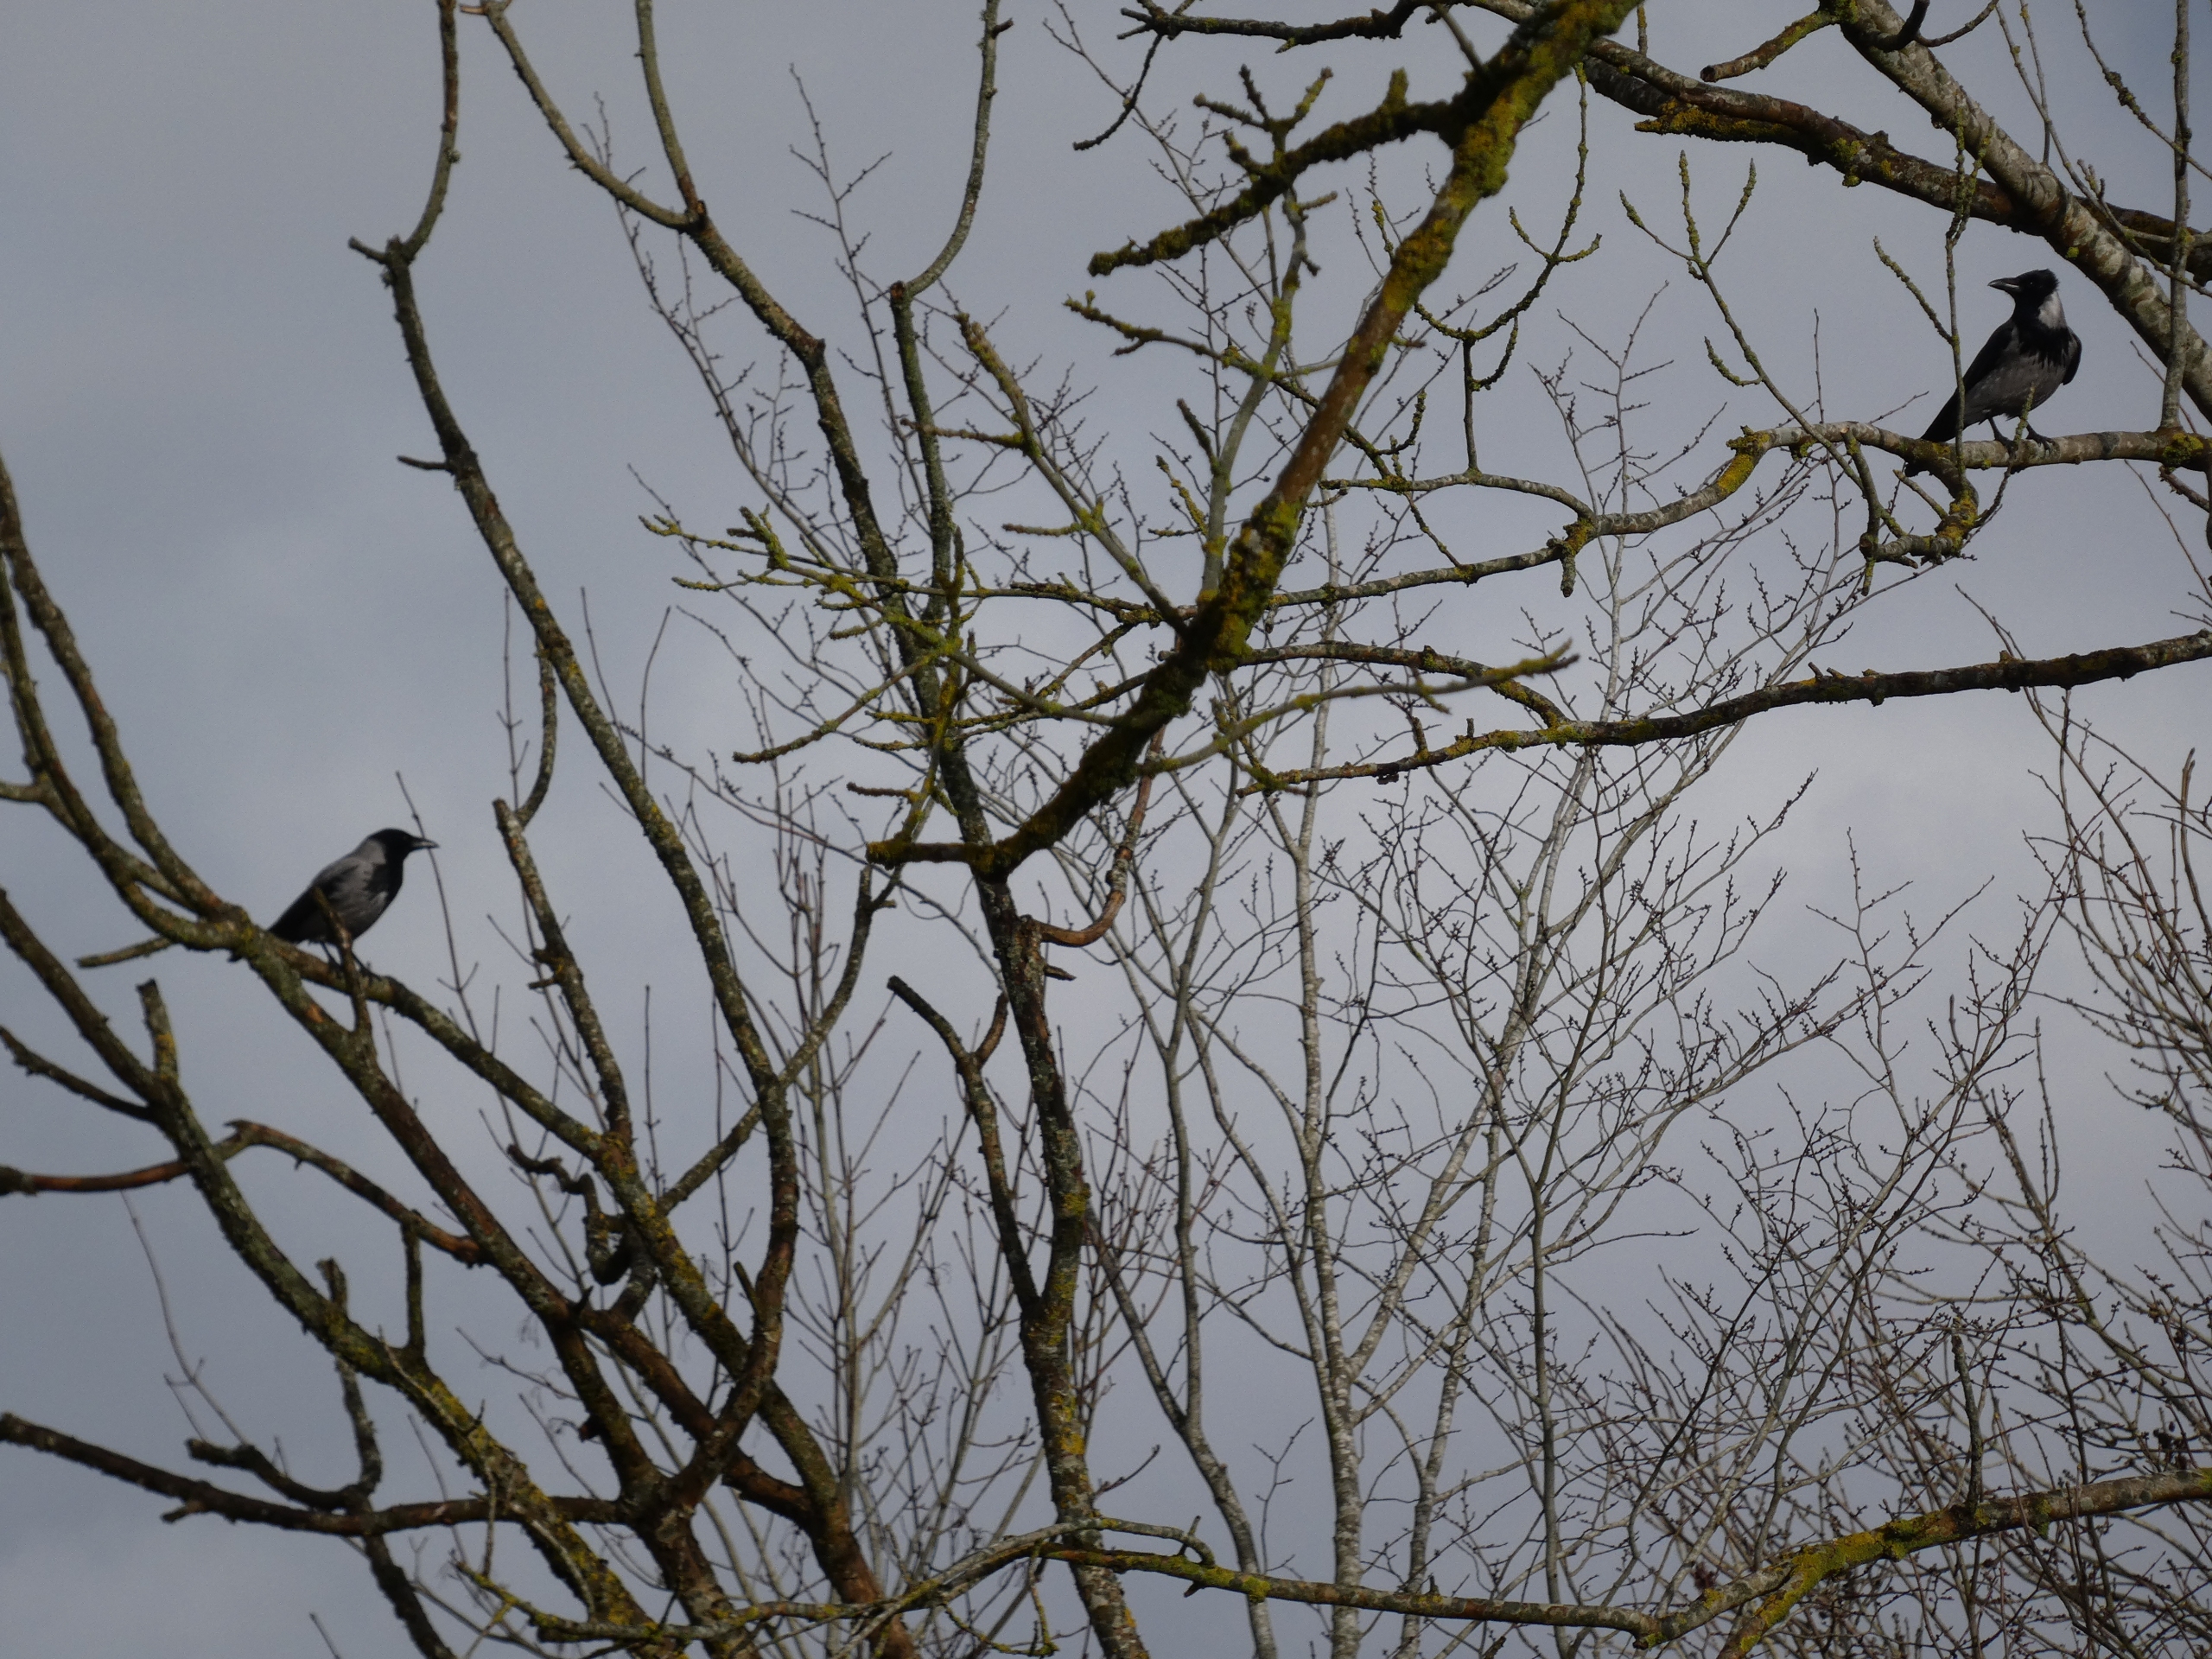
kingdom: Animalia
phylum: Chordata
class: Aves
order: Passeriformes
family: Corvidae
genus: Corvus
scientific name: Corvus cornix
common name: Gråkrage
